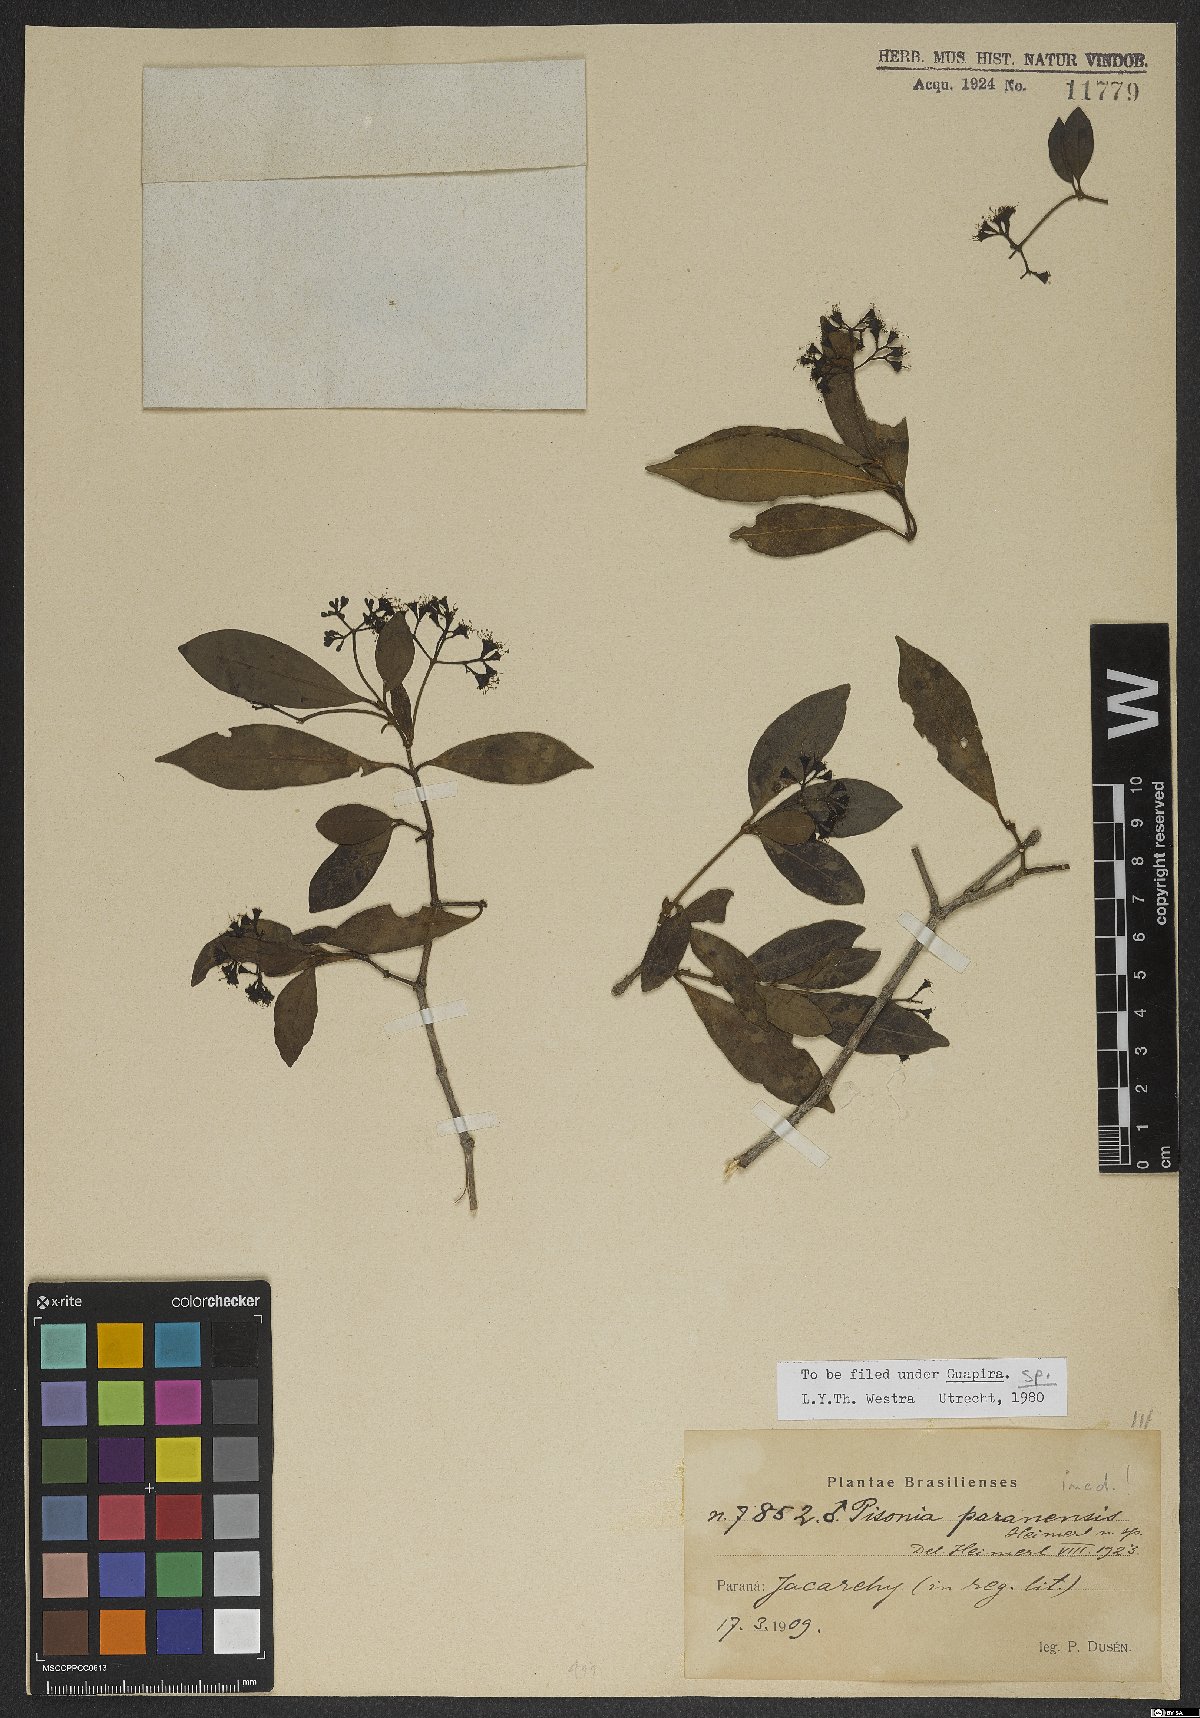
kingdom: Plantae
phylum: Tracheophyta
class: Magnoliopsida
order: Caryophyllales
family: Nyctaginaceae
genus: Guapira
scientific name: Guapira
